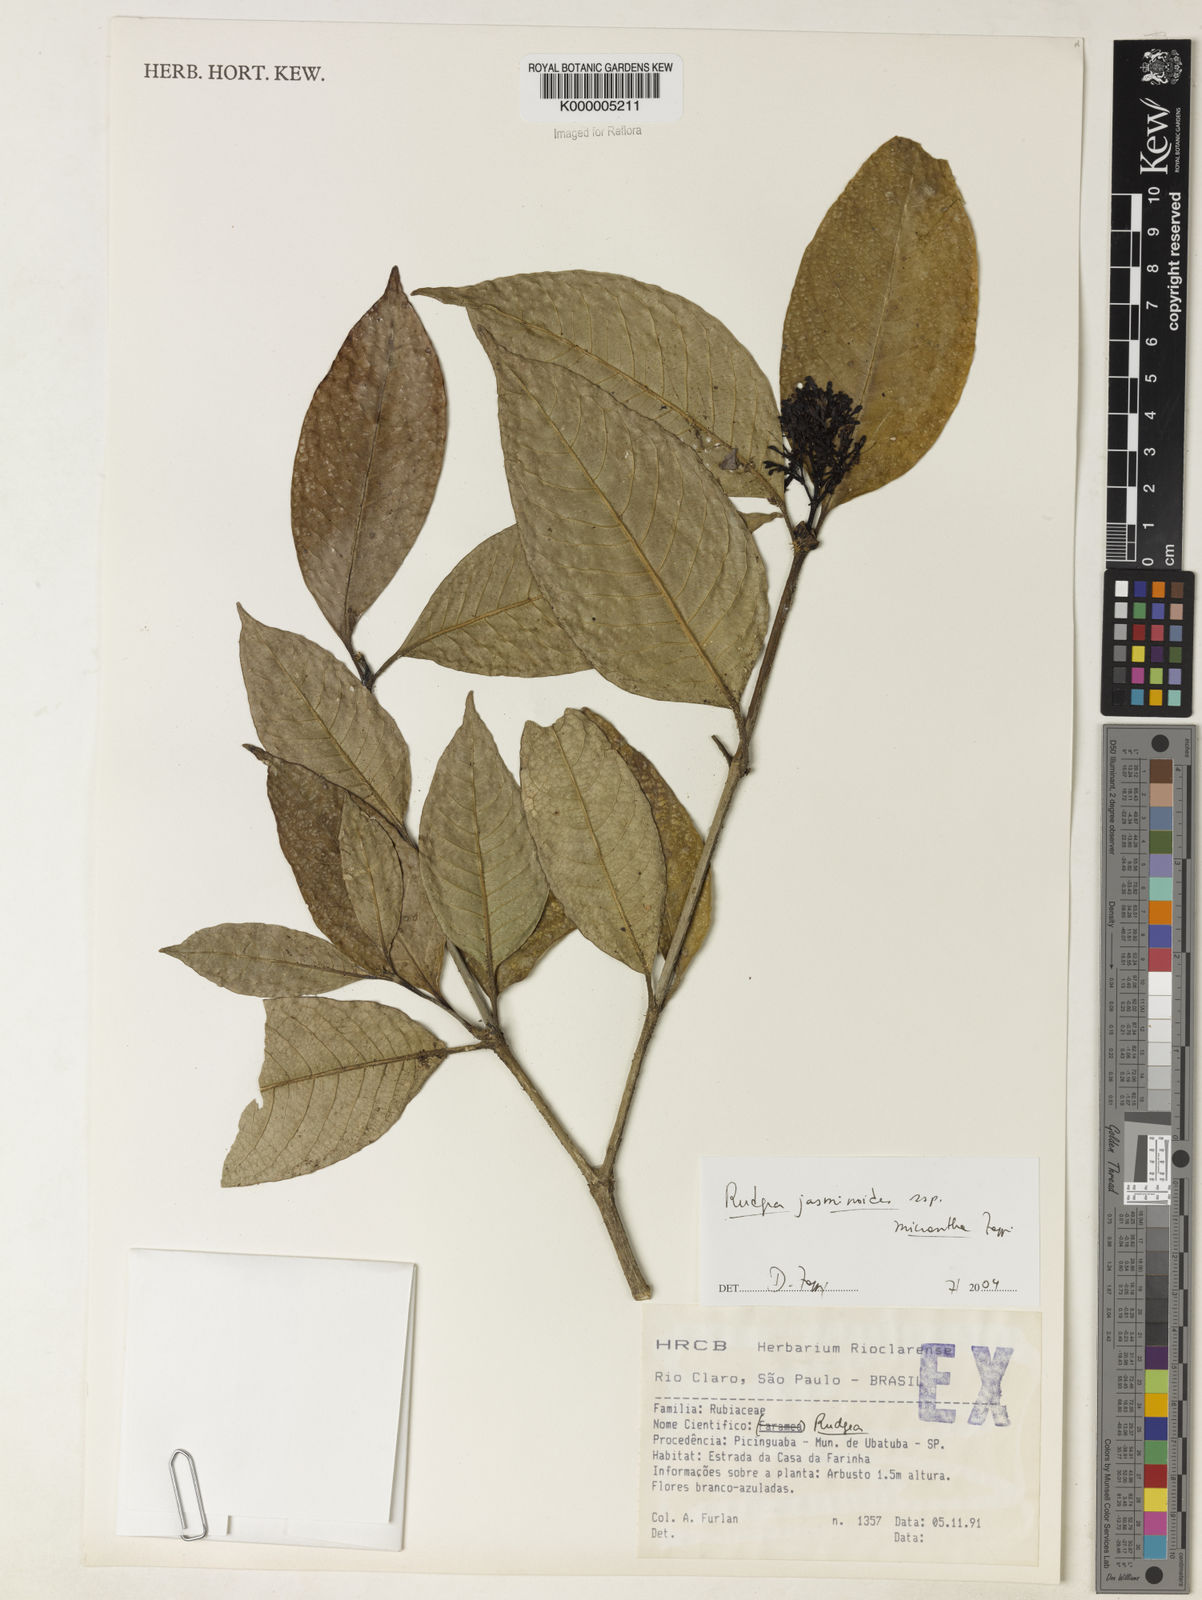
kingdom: Plantae
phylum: Tracheophyta
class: Magnoliopsida
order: Gentianales
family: Rubiaceae
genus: Rudgea
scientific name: Rudgea jasminoides
